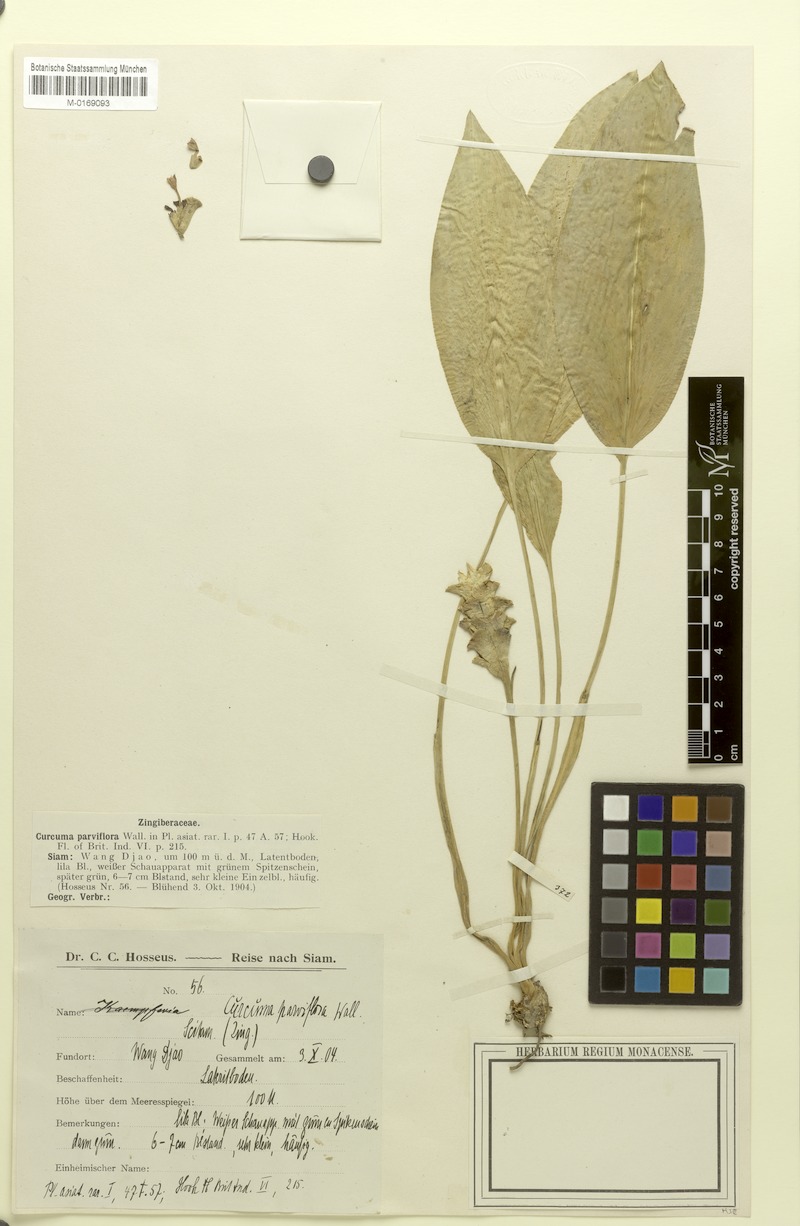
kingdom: Plantae
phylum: Tracheophyta
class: Liliopsida
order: Zingiberales
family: Zingiberaceae
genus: Curcuma
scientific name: Curcuma parviflora
